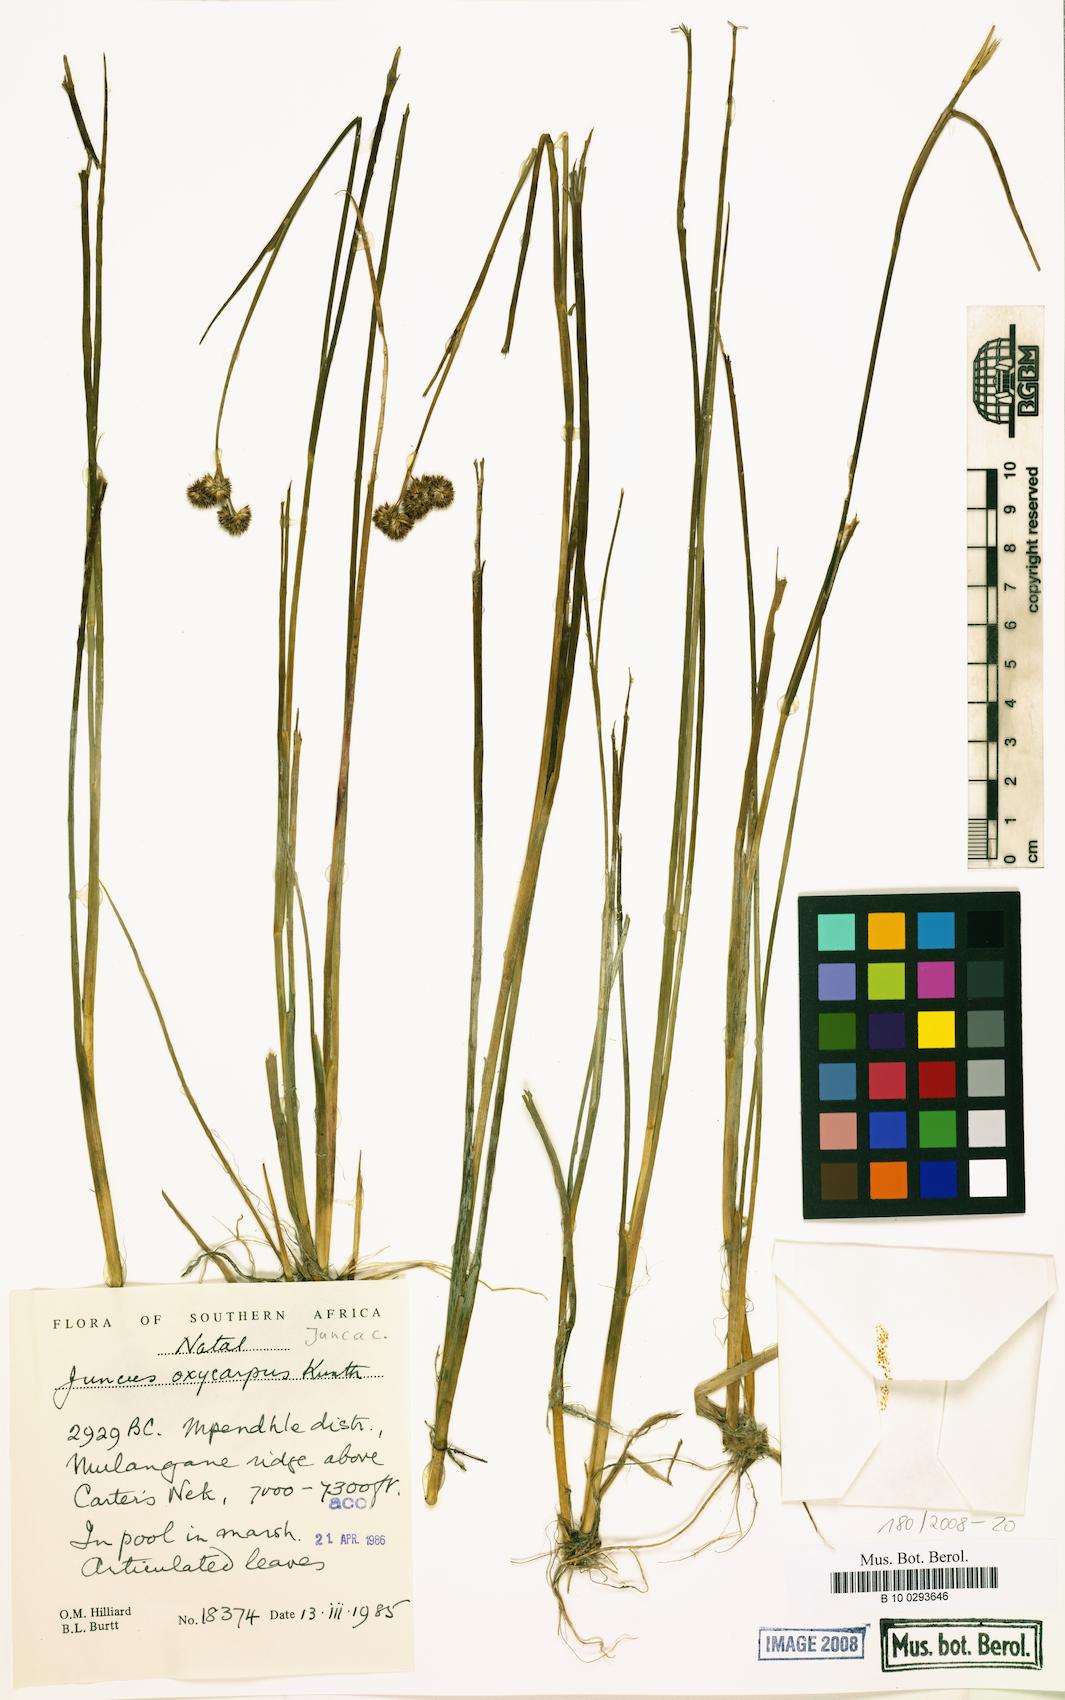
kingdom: Plantae
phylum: Tracheophyta
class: Liliopsida
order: Poales
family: Juncaceae
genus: Juncus
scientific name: Juncus oxycarpus
